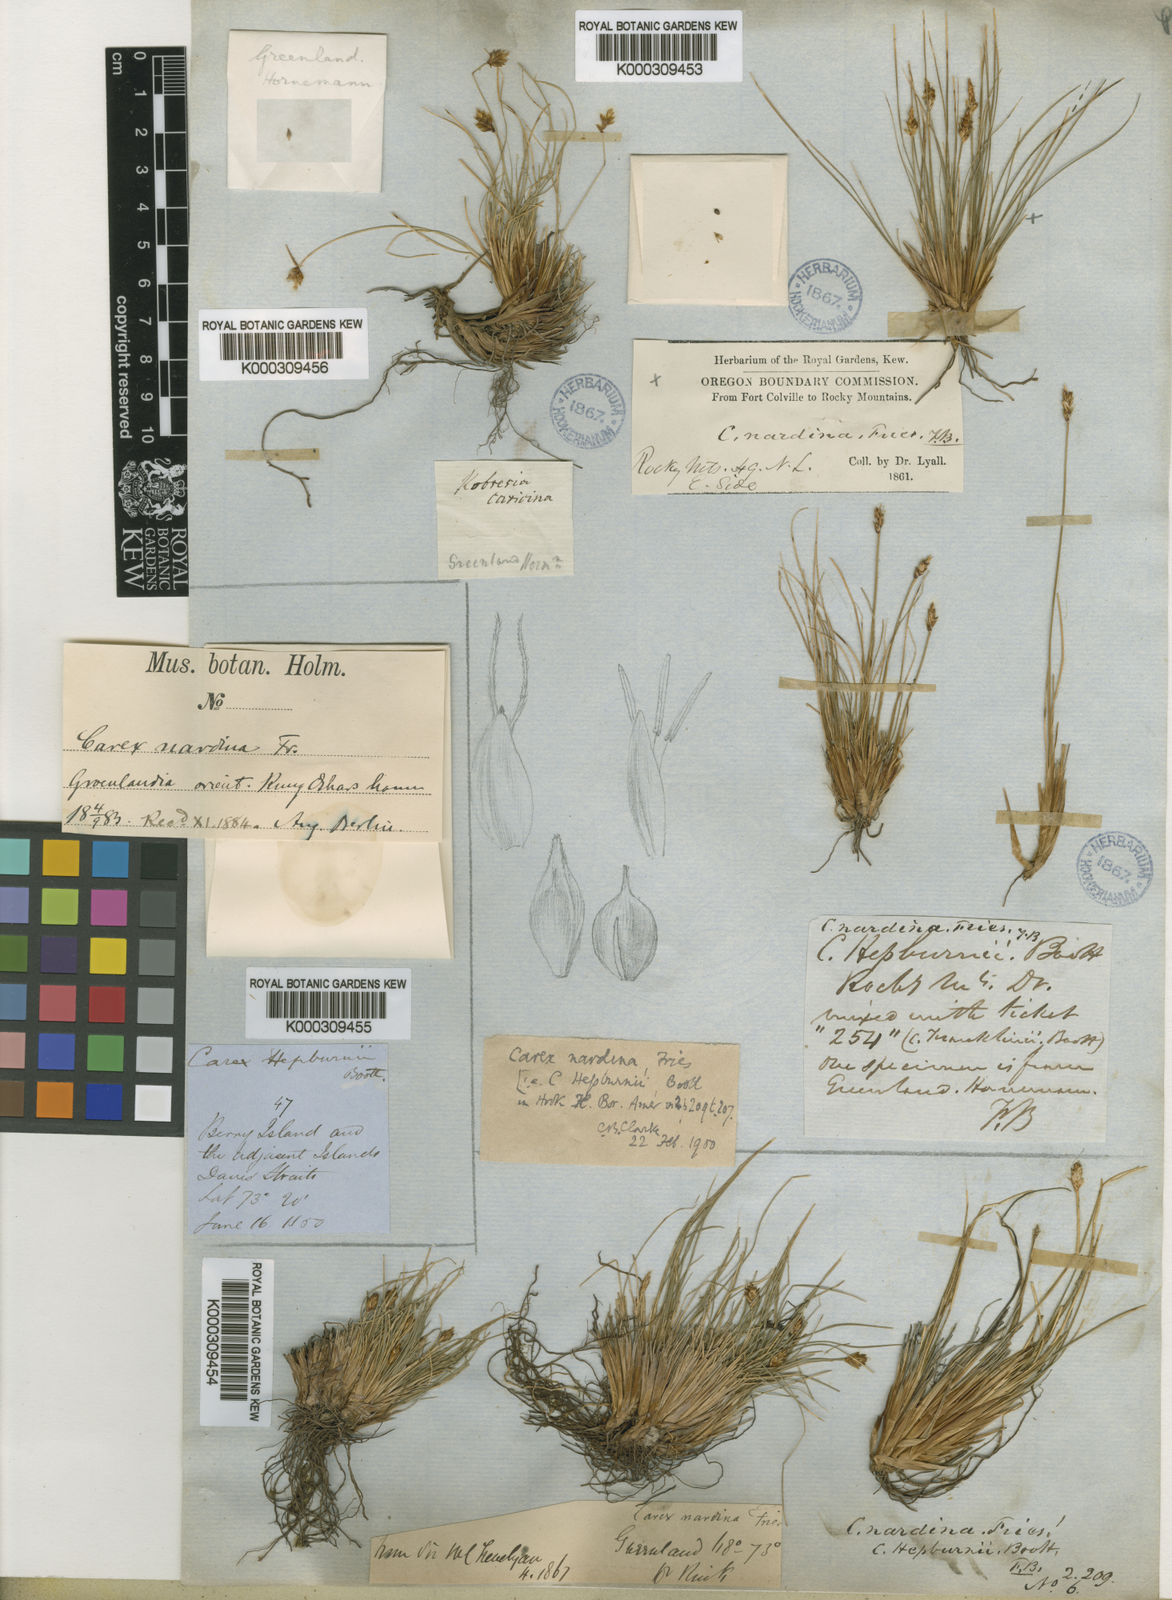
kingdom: Plantae
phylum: Tracheophyta
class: Liliopsida
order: Poales
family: Cyperaceae
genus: Carex
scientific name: Carex nardina
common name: Nard sedge
